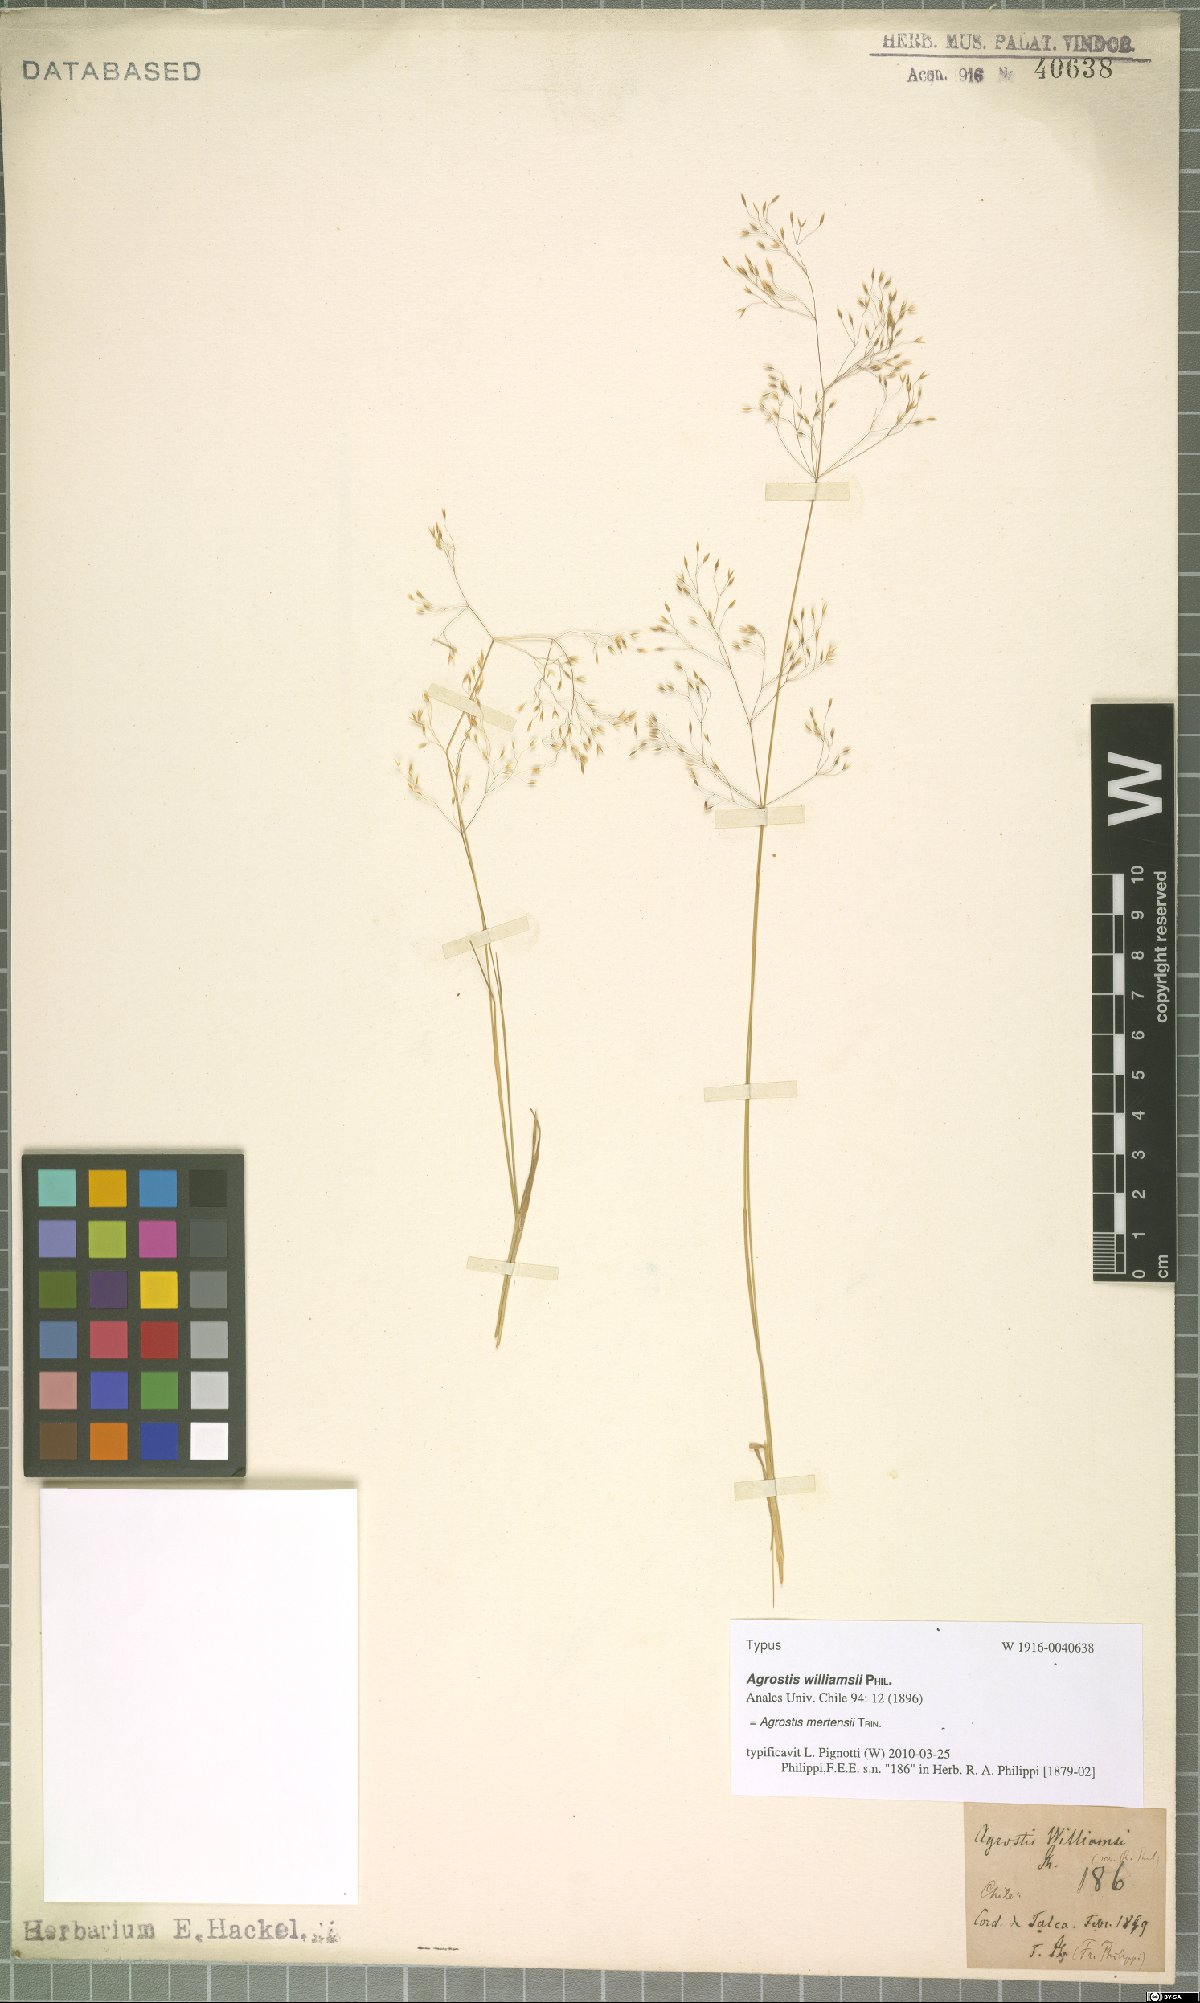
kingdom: Plantae
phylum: Tracheophyta
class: Liliopsida
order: Poales
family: Poaceae
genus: Agrostis
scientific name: Agrostis mertensii
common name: Northern bent
